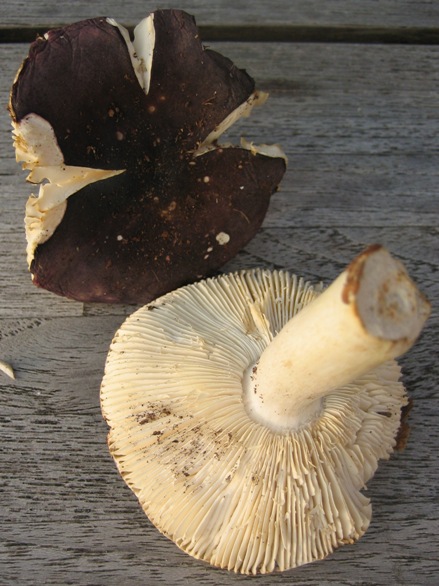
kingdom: Fungi
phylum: Basidiomycota
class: Agaricomycetes
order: Russulales
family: Russulaceae
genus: Russula
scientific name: Russula brunneoviolacea
